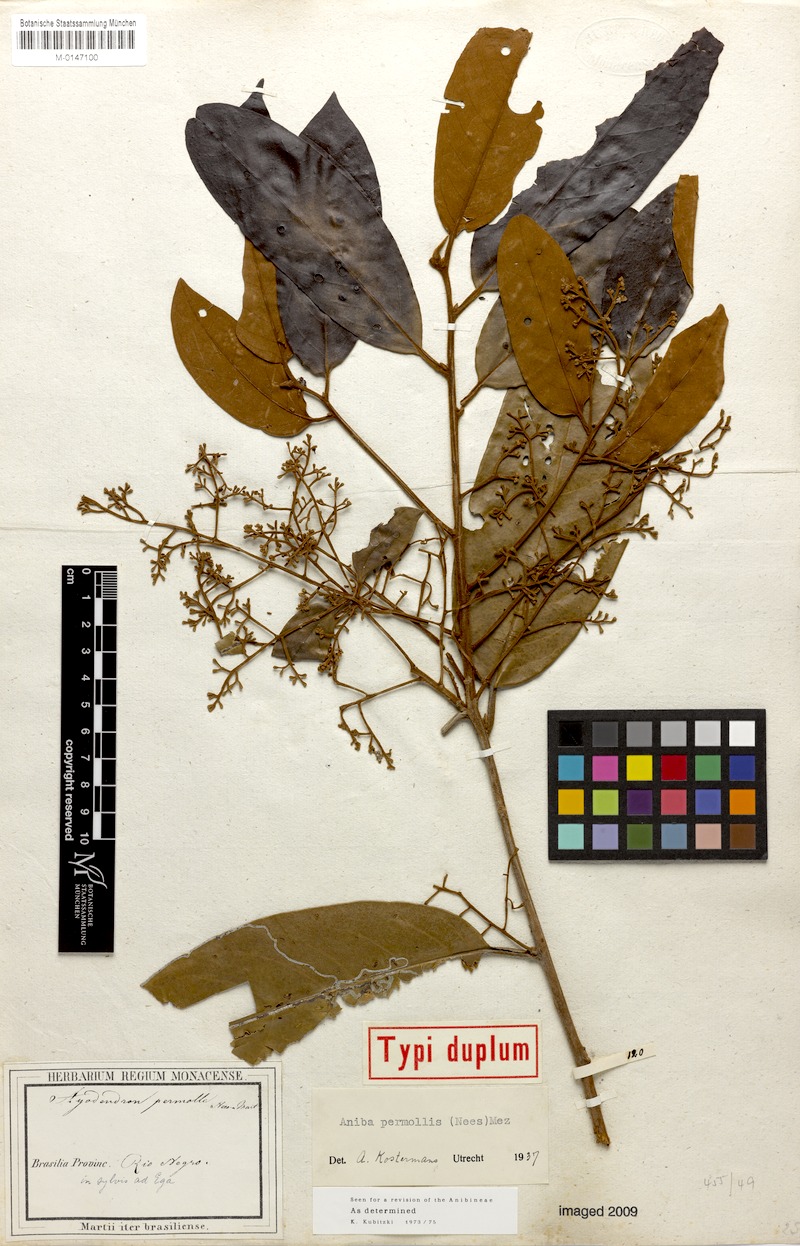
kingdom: Plantae
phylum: Tracheophyta
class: Magnoliopsida
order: Laurales
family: Lauraceae
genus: Aniba
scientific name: Aniba permollis
